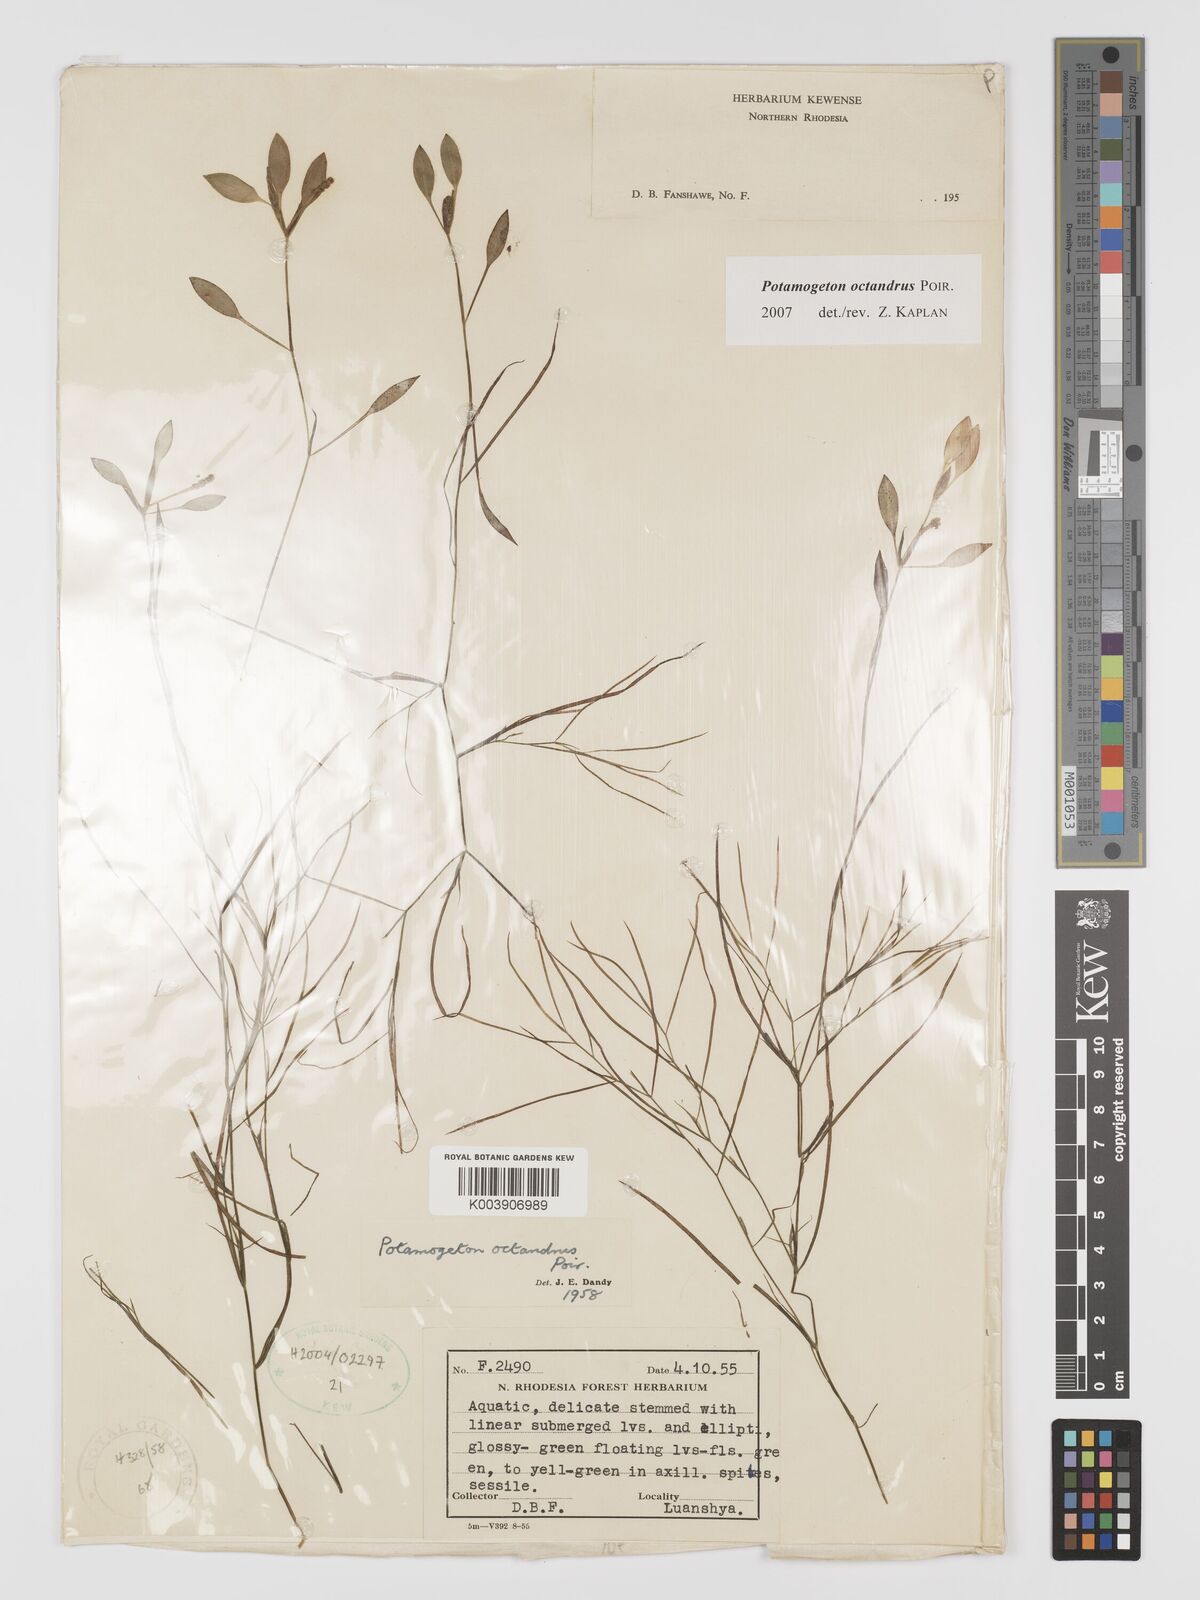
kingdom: Plantae
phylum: Tracheophyta
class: Liliopsida
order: Alismatales
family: Potamogetonaceae
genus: Potamogeton
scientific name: Potamogeton octandrus
